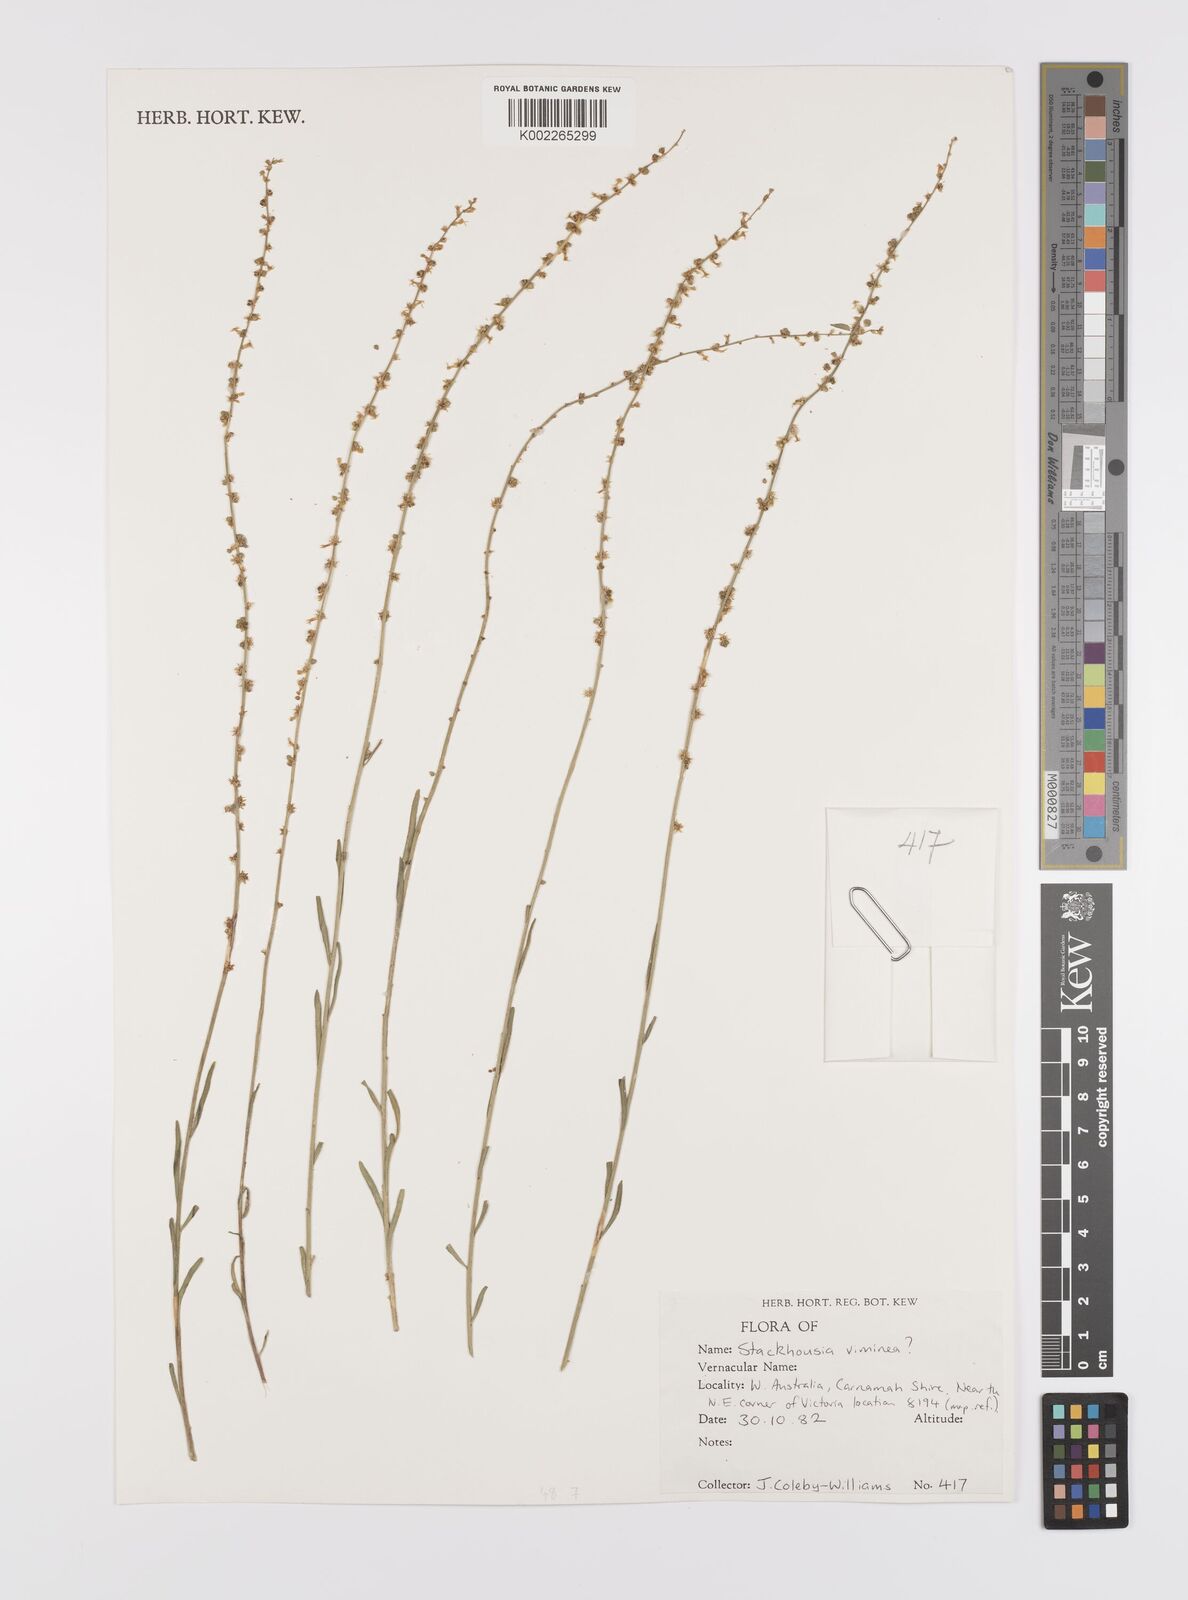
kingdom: Plantae
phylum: Tracheophyta
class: Magnoliopsida
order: Celastrales
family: Celastraceae
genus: Stackhousia
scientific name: Stackhousia viminea
